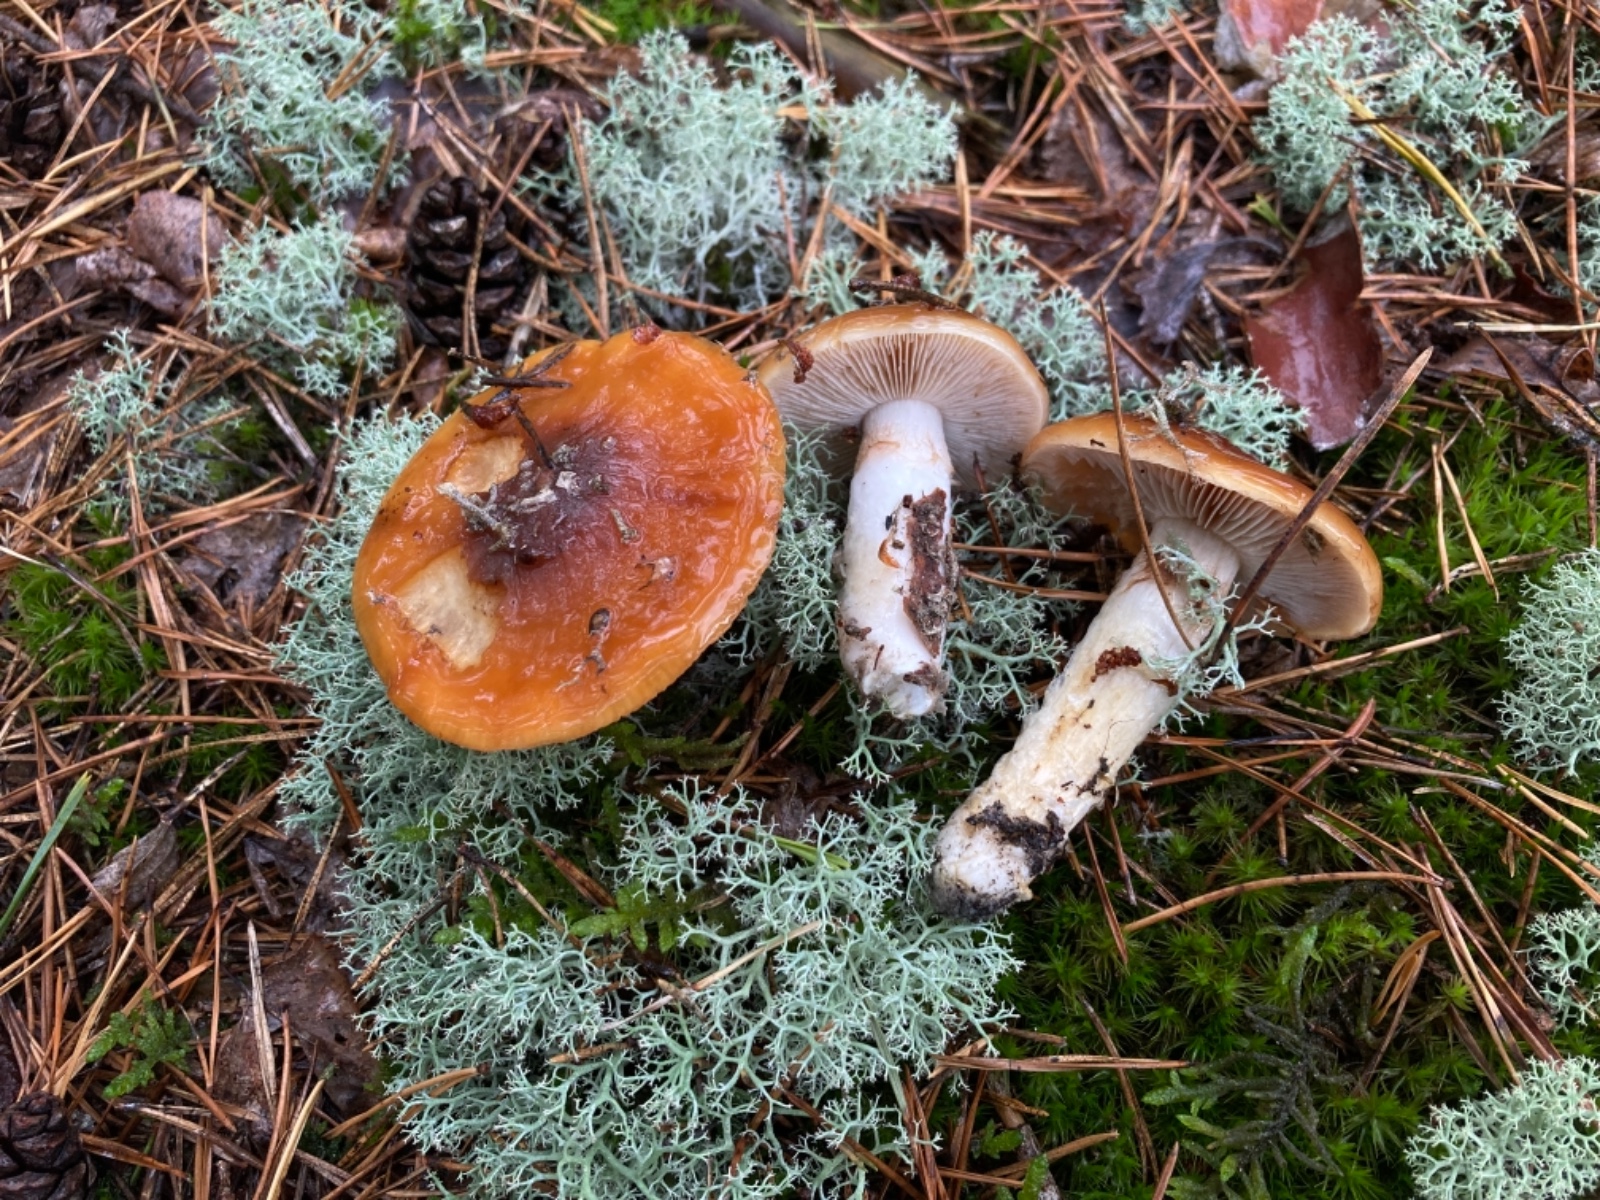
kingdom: Fungi
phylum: Basidiomycota
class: Agaricomycetes
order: Agaricales
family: Cortinariaceae
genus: Cortinarius
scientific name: Cortinarius mucosus
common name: kastaniebrun slørhat
